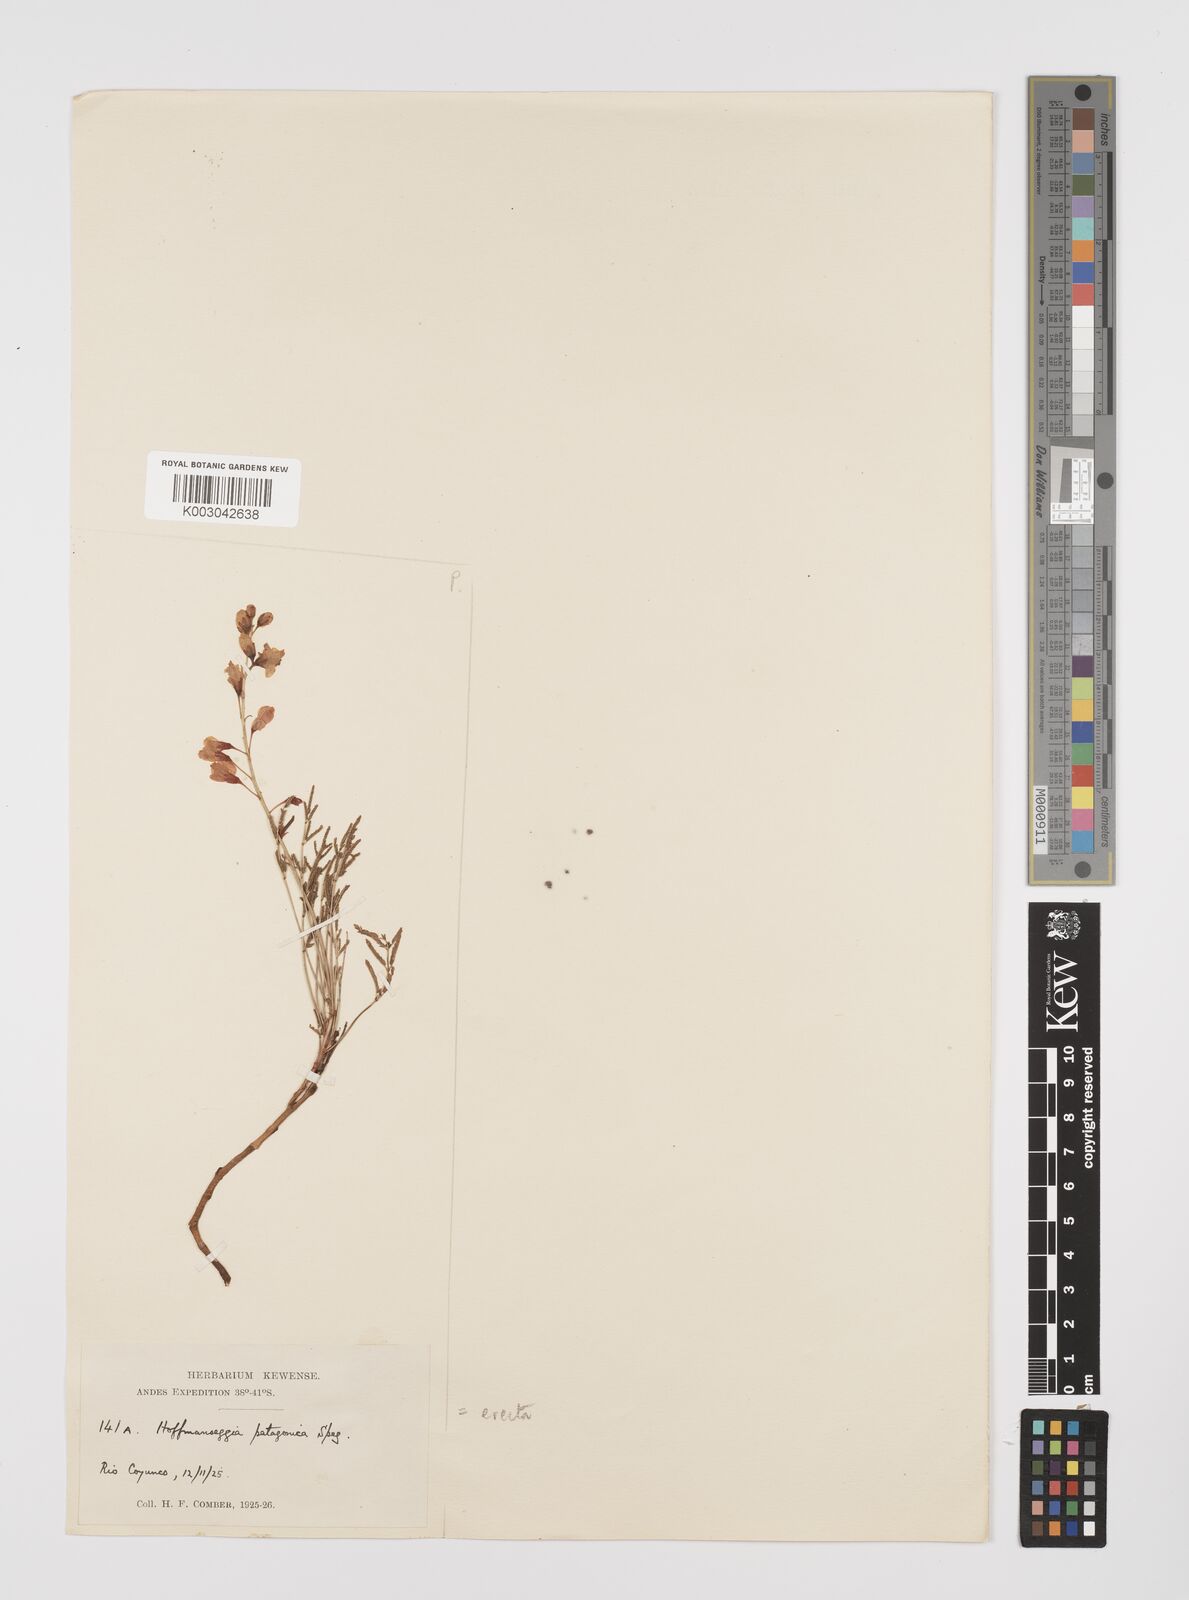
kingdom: Plantae
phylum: Tracheophyta
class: Magnoliopsida
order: Fabales
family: Fabaceae
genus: Hoffmannseggia
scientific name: Hoffmannseggia erecta
